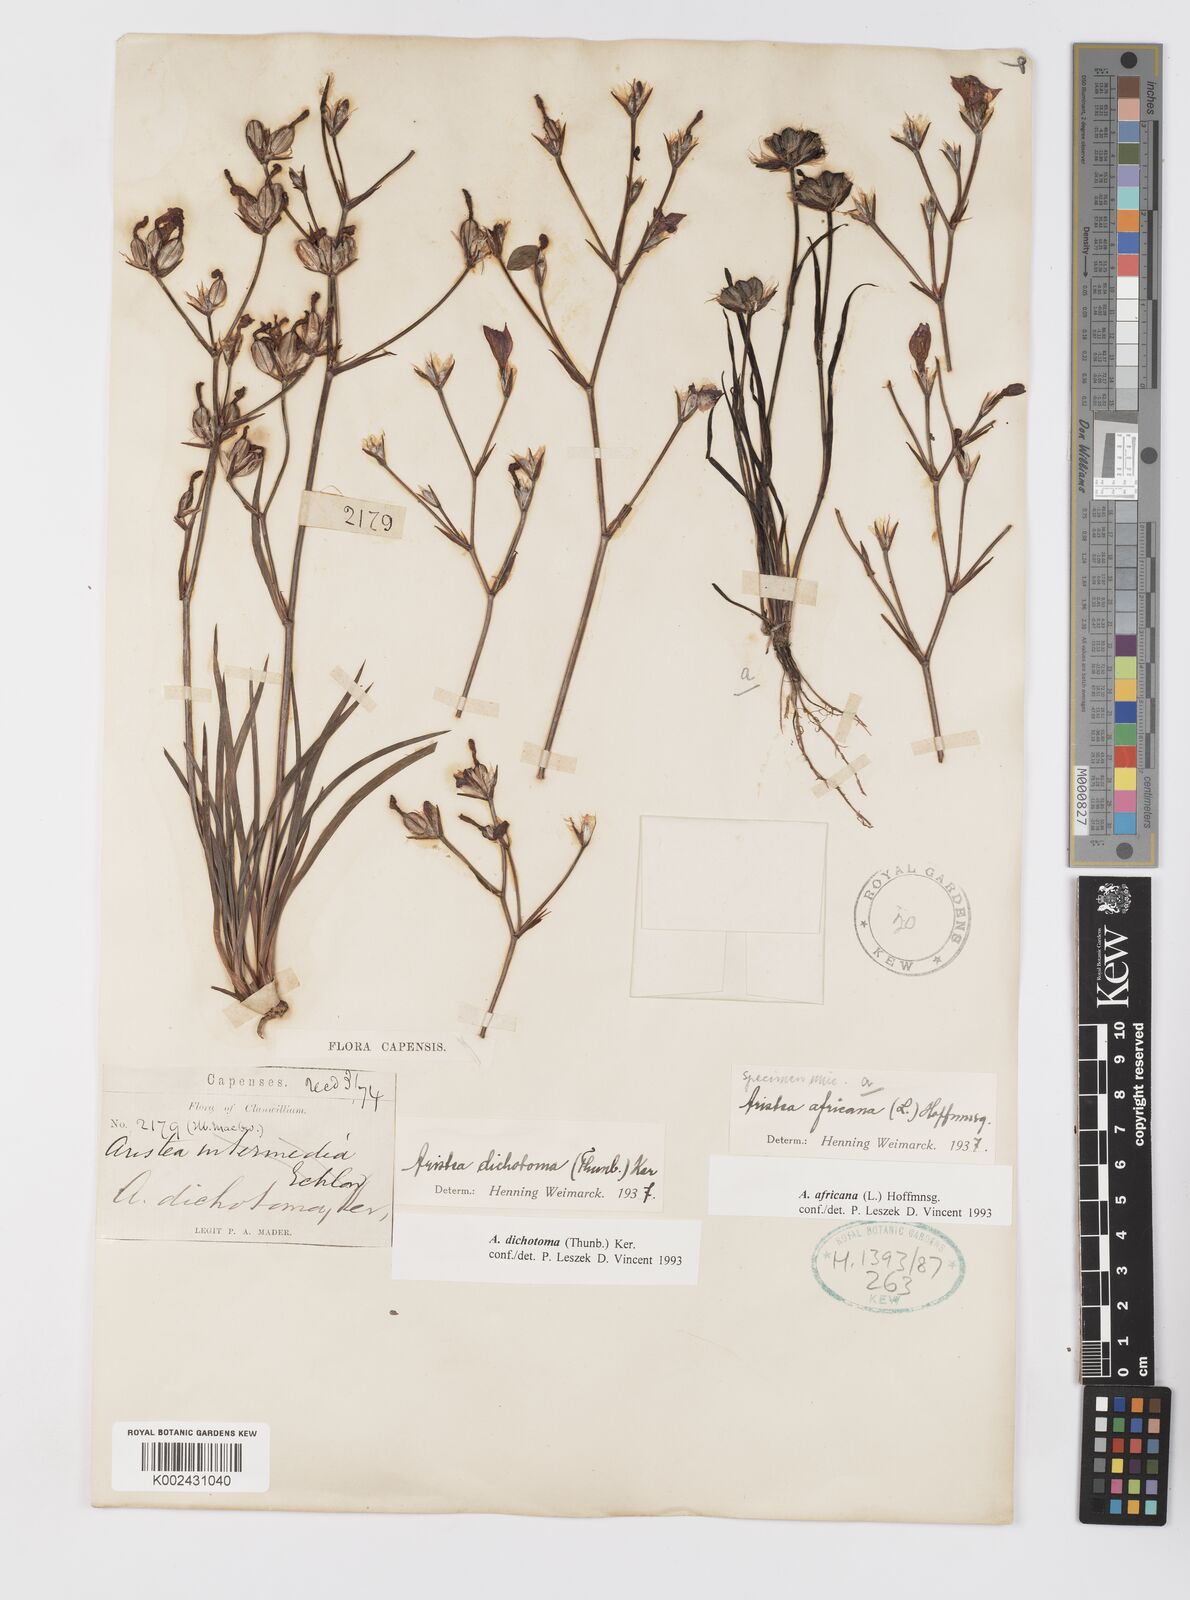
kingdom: Plantae
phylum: Tracheophyta
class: Liliopsida
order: Asparagales
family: Iridaceae
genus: Aristea
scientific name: Aristea dichotoma
